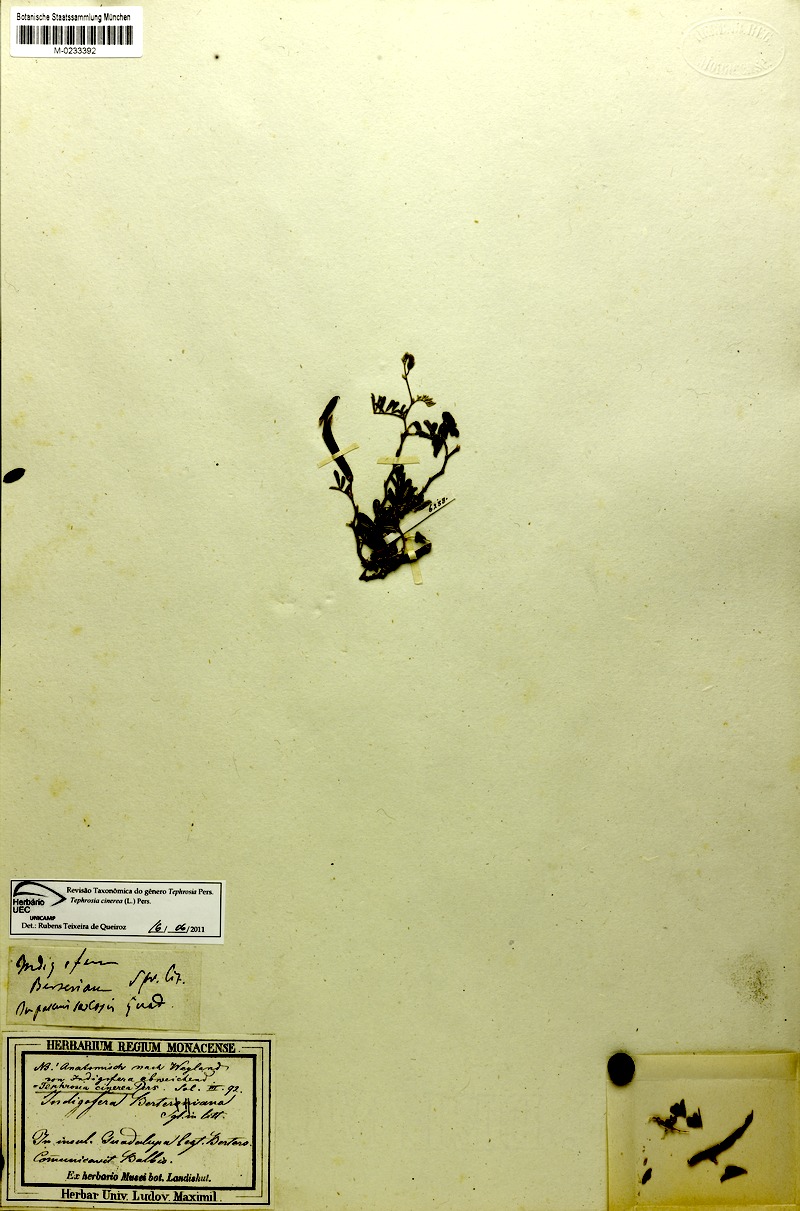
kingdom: Plantae
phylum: Tracheophyta
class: Magnoliopsida
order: Fabales
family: Fabaceae
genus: Tephrosia
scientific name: Tephrosia cinerea
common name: Ashen hoarypea
